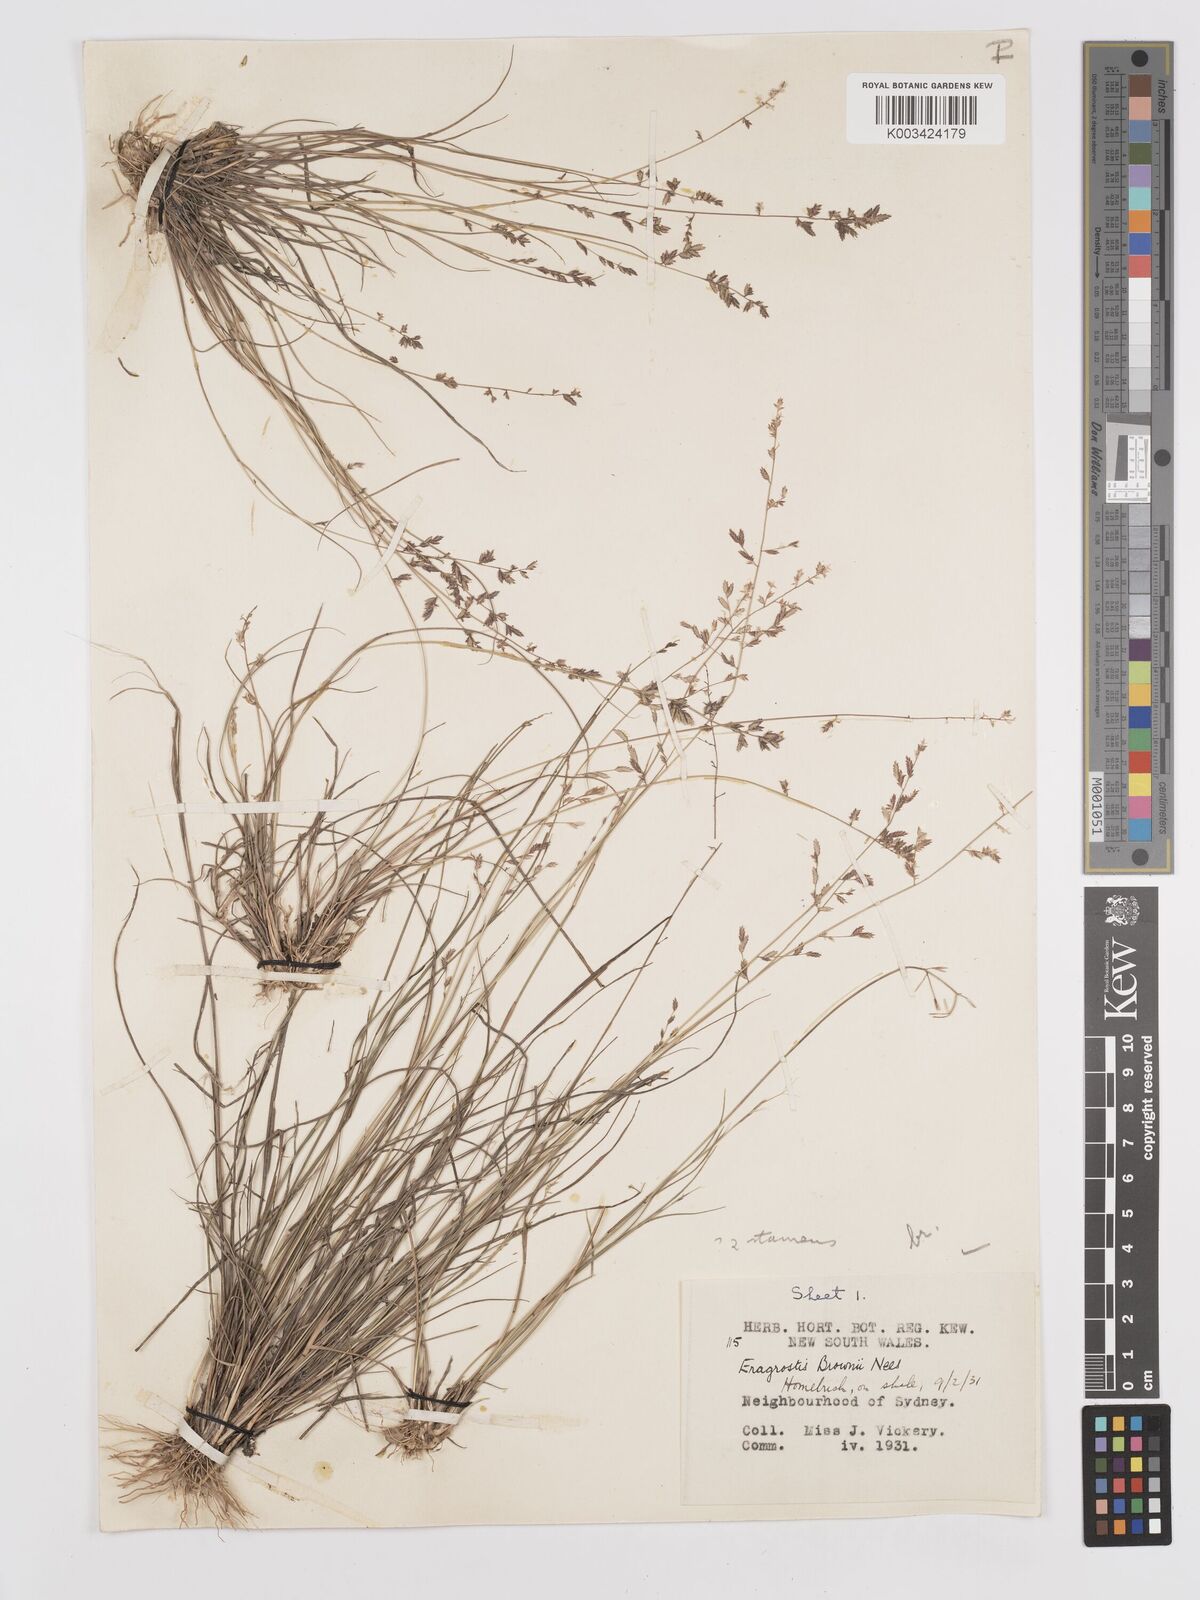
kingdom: Plantae
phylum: Tracheophyta
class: Liliopsida
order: Poales
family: Poaceae
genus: Eragrostis
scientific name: Eragrostis brownii
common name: Lovegrass
